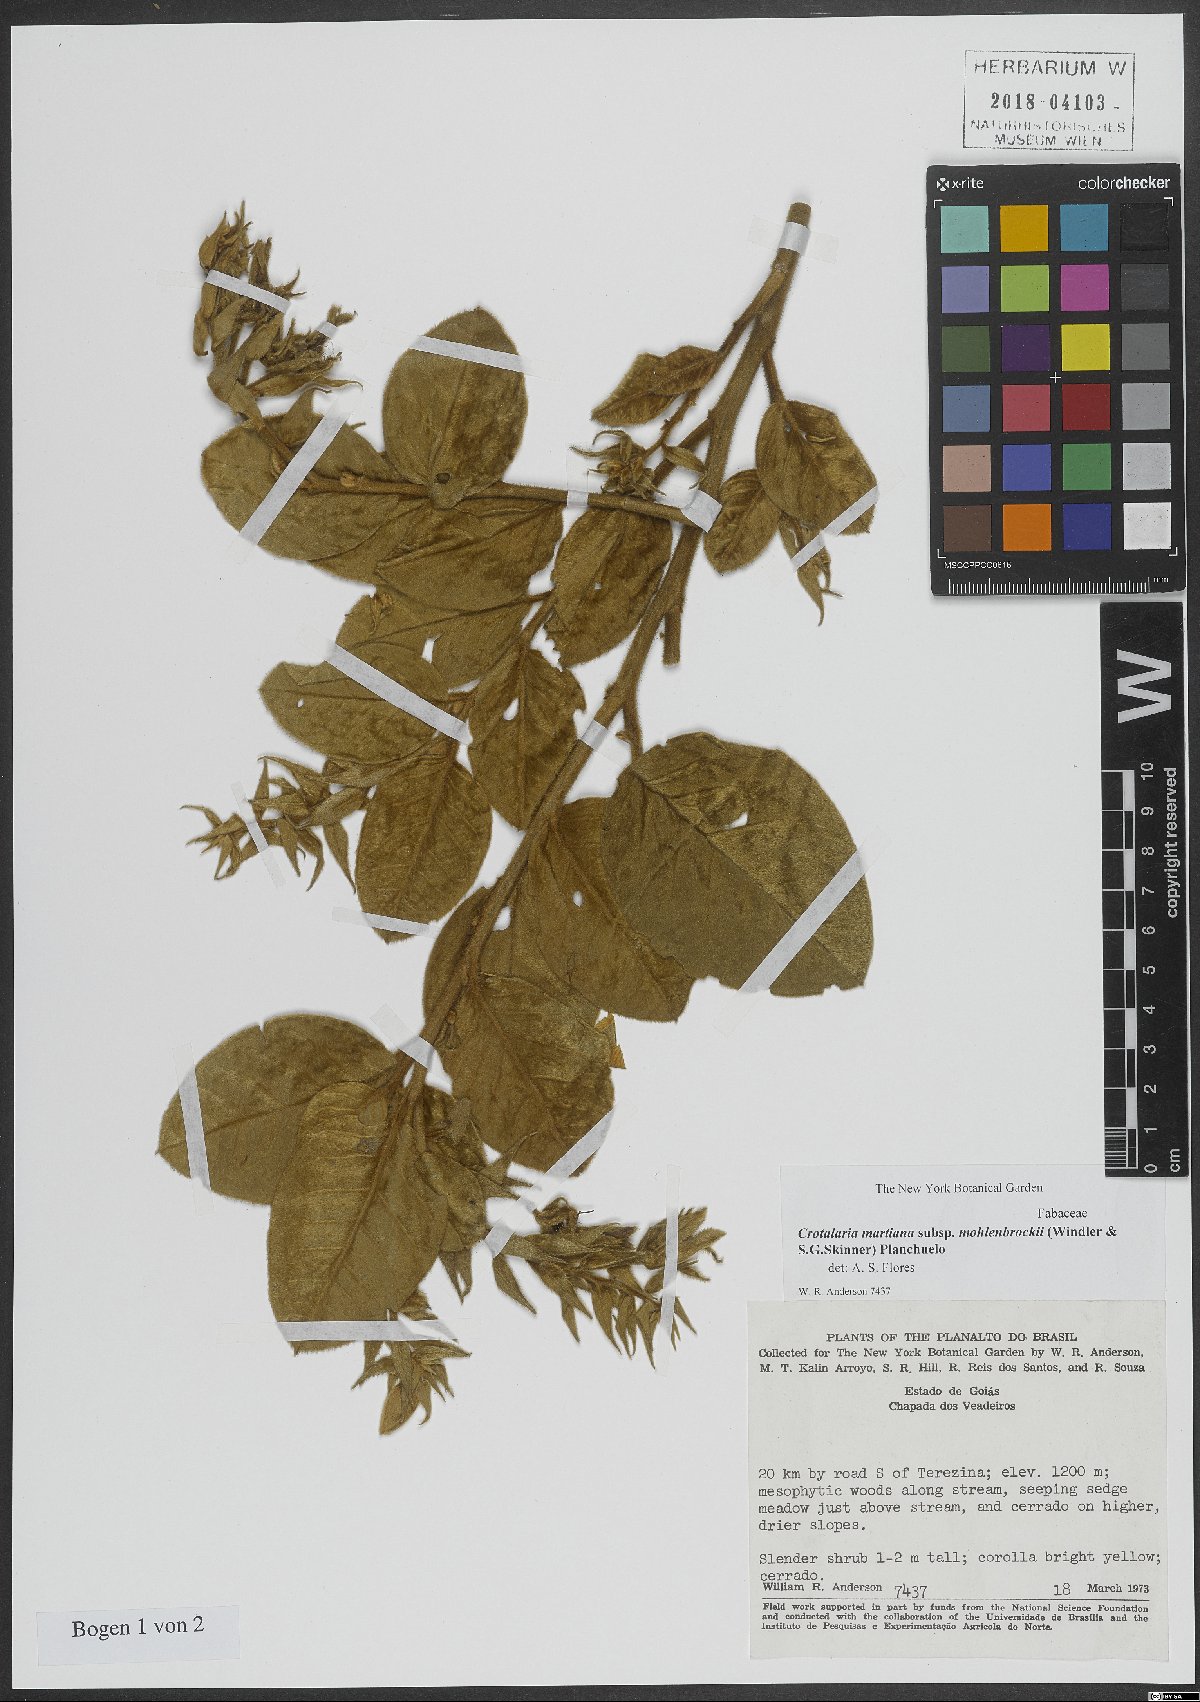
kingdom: Plantae
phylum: Tracheophyta
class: Magnoliopsida
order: Fabales
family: Fabaceae
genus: Crotalaria
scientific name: Crotalaria martiana
